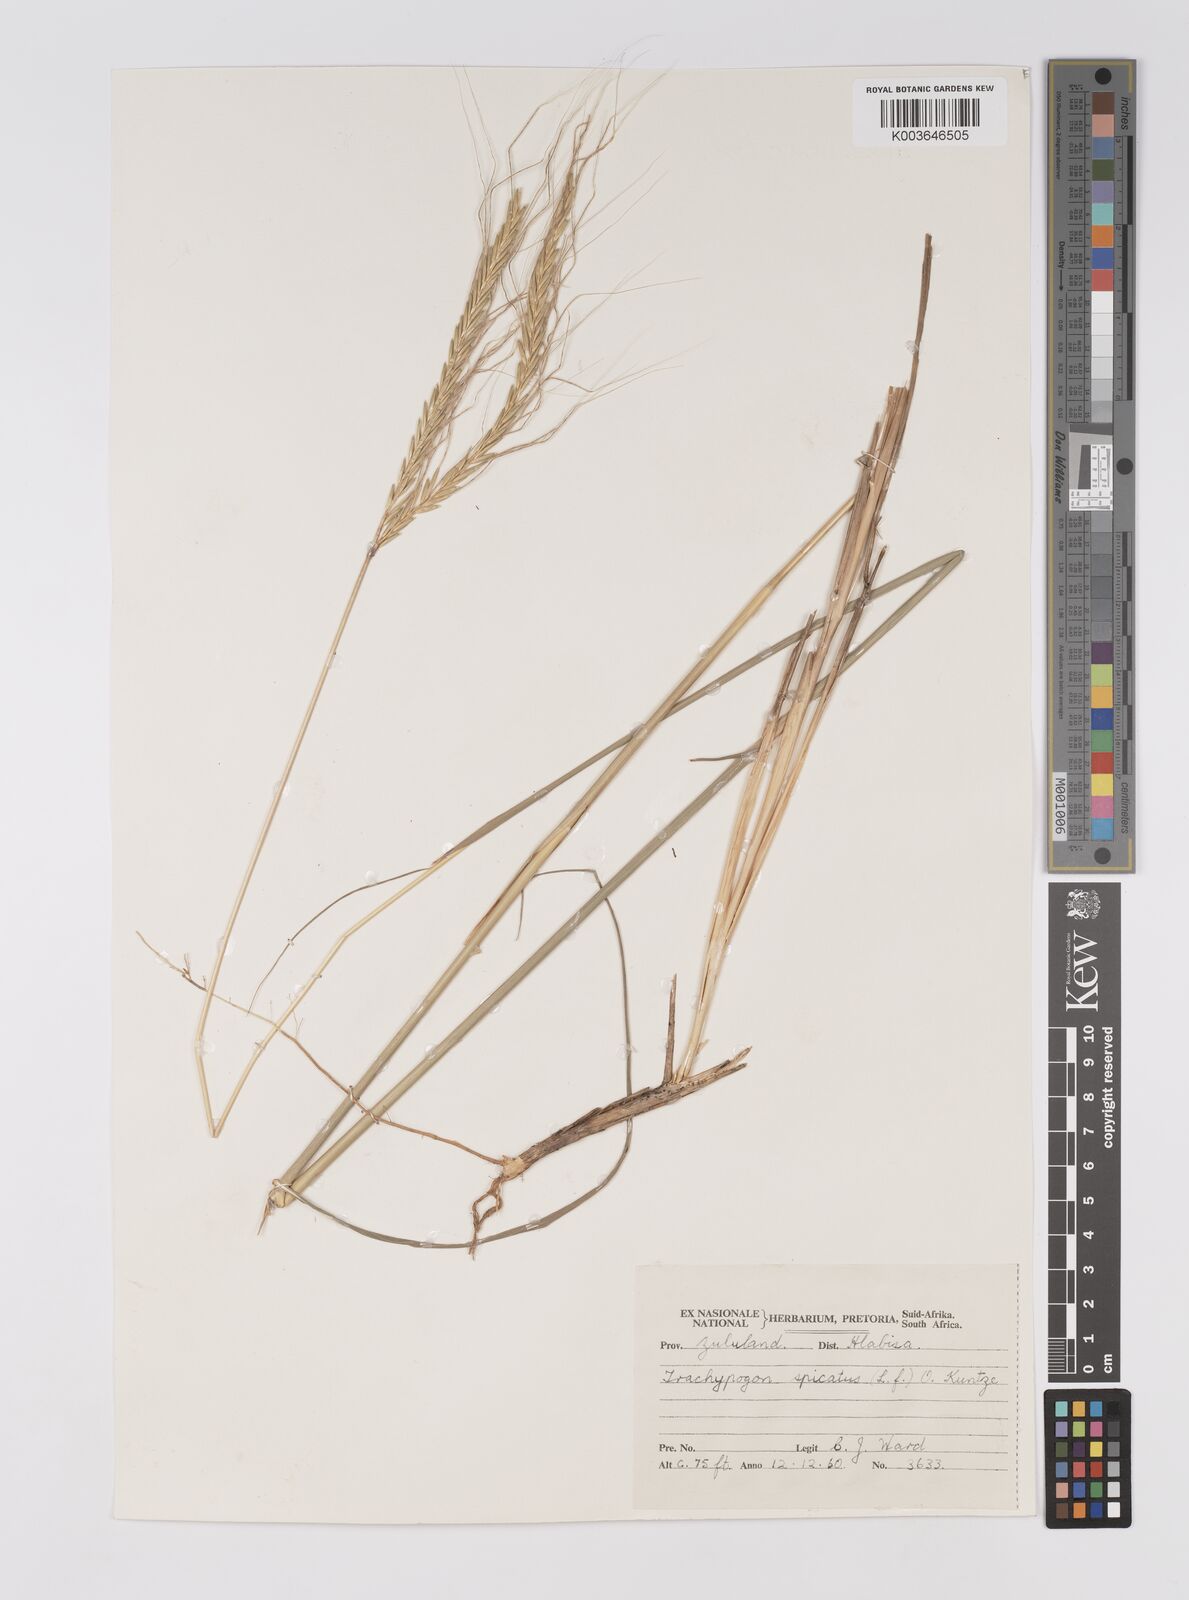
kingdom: Plantae
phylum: Tracheophyta
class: Liliopsida
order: Poales
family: Poaceae
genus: Trachypogon
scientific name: Trachypogon spicatus
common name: Crinkle-awn
